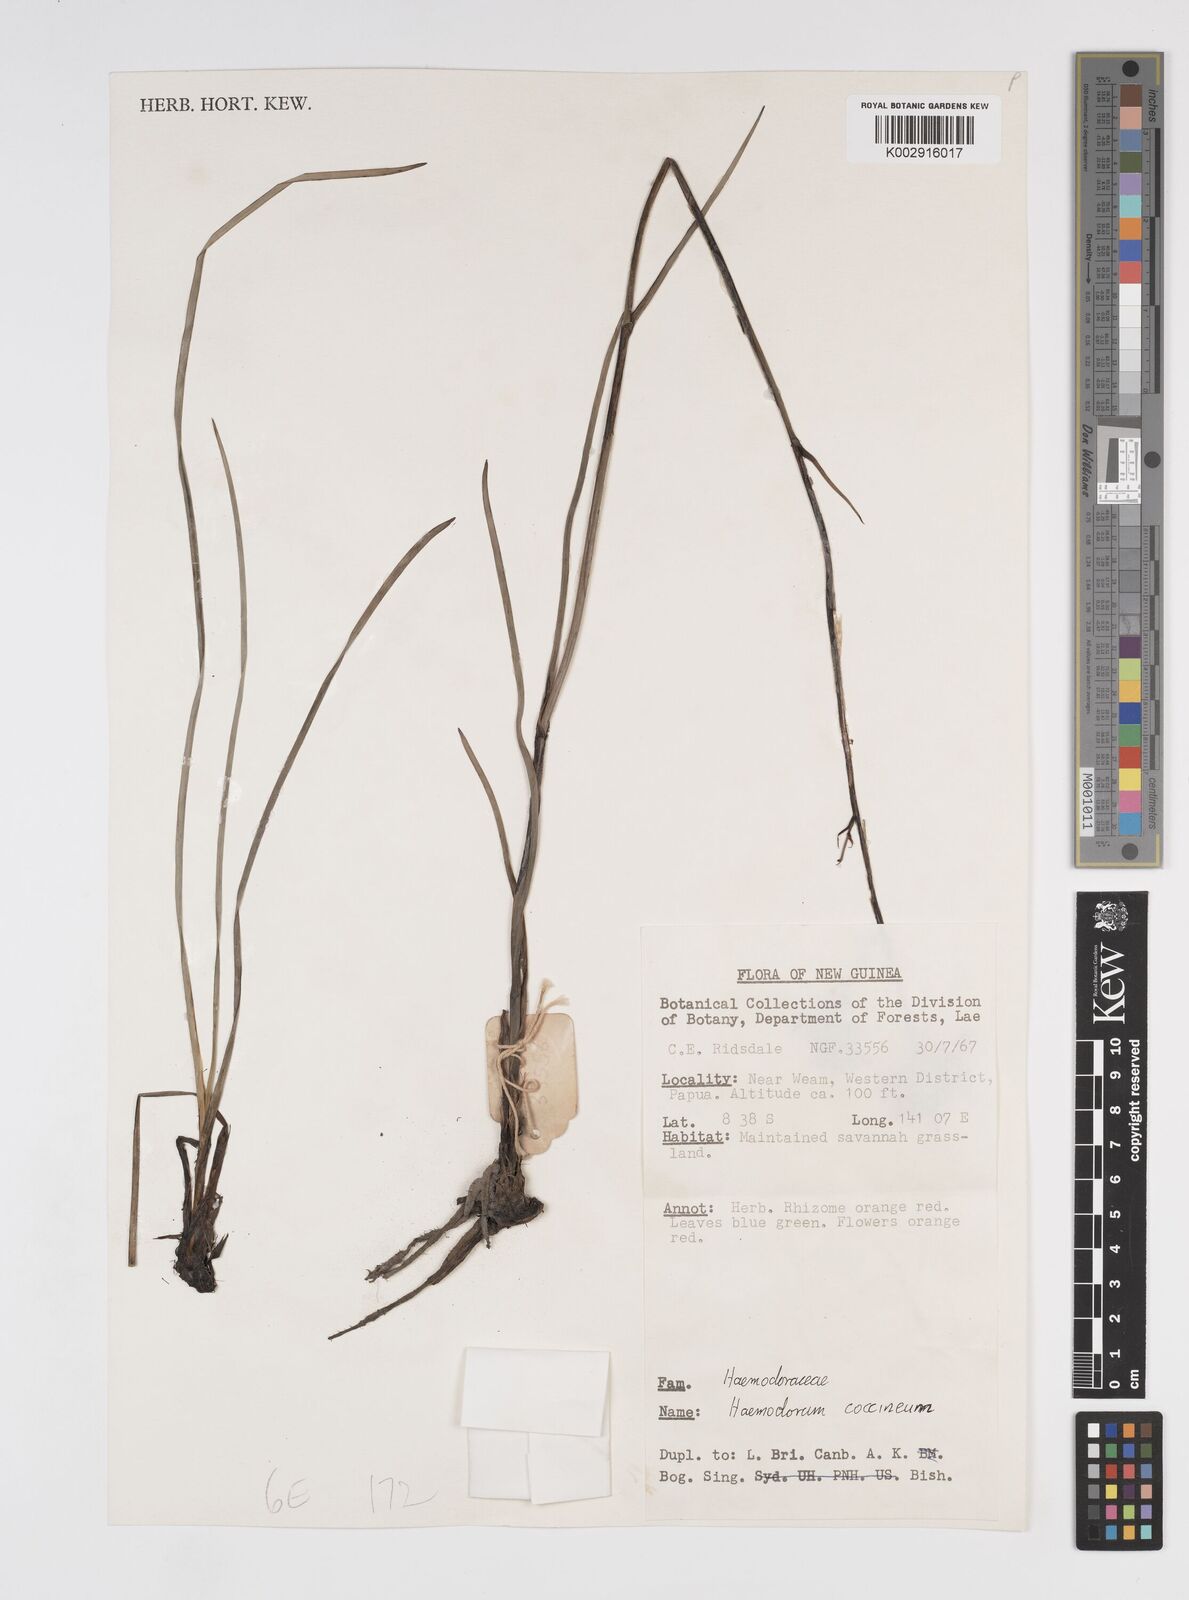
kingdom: Plantae
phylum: Tracheophyta
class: Liliopsida
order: Commelinales
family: Haemodoraceae
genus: Haemodorum
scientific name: Haemodorum corymbosum
